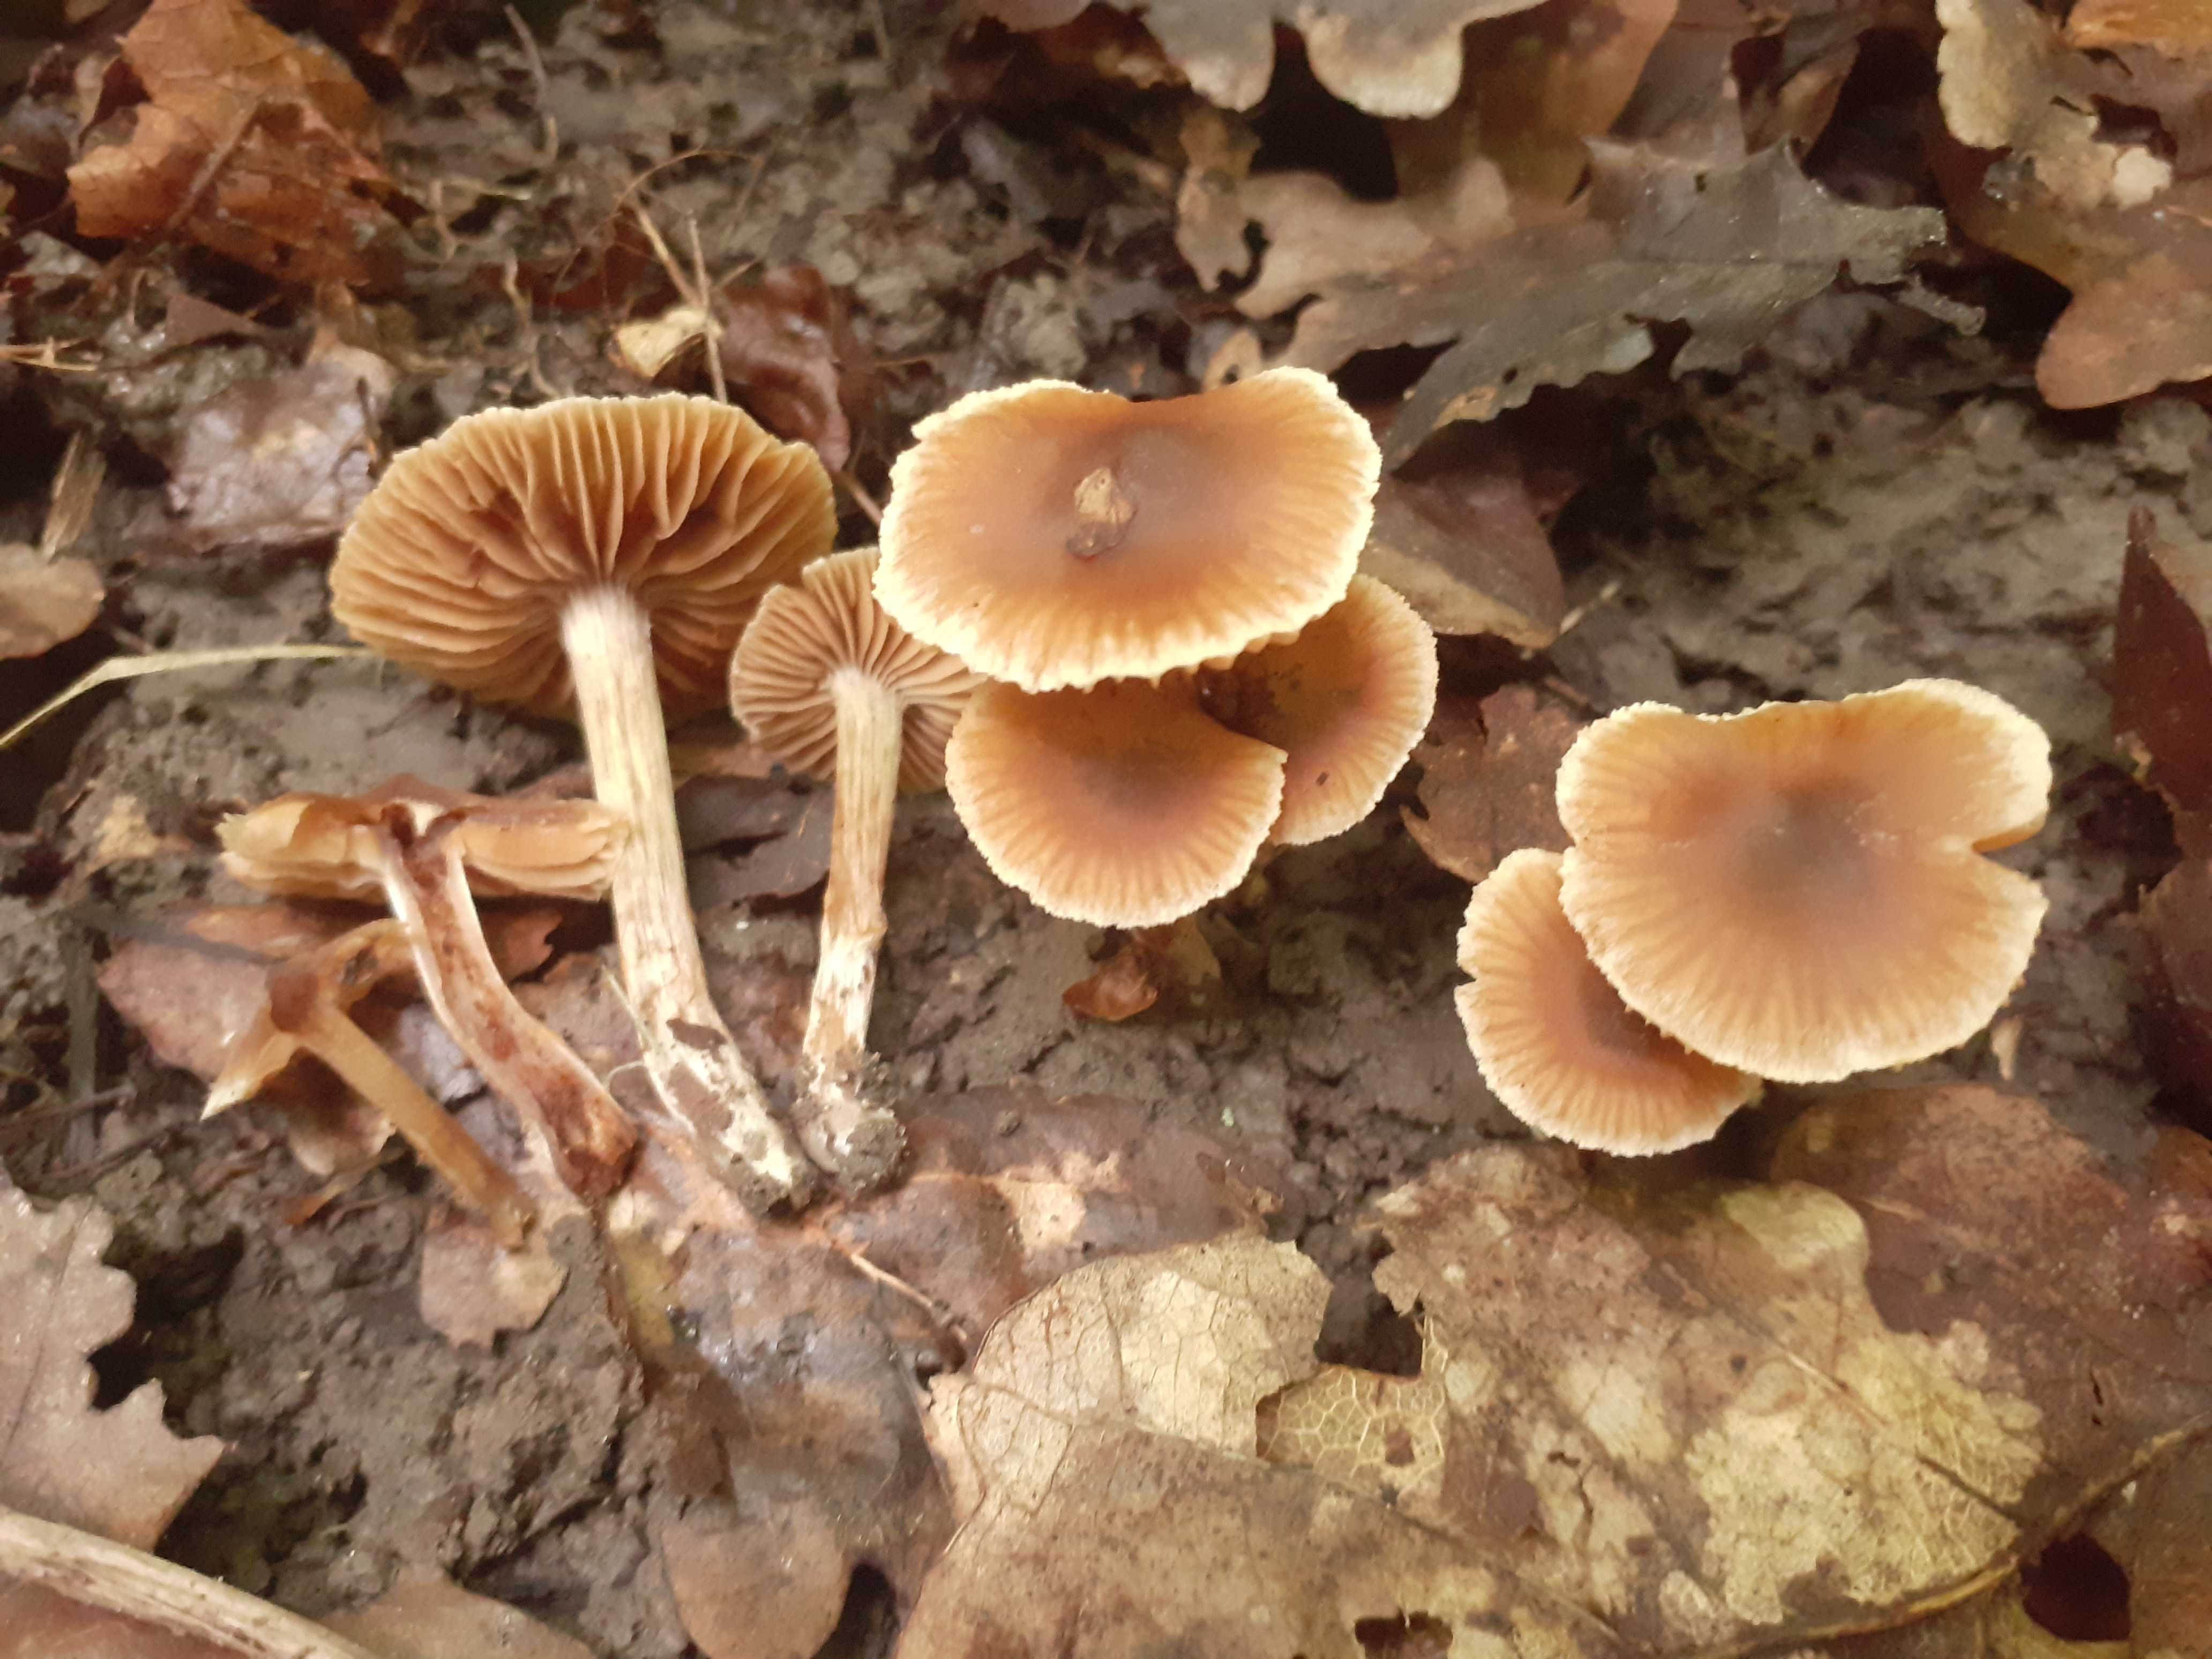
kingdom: Fungi
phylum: Basidiomycota
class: Agaricomycetes
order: Agaricales
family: Cortinariaceae
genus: Cortinarius
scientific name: Cortinarius
